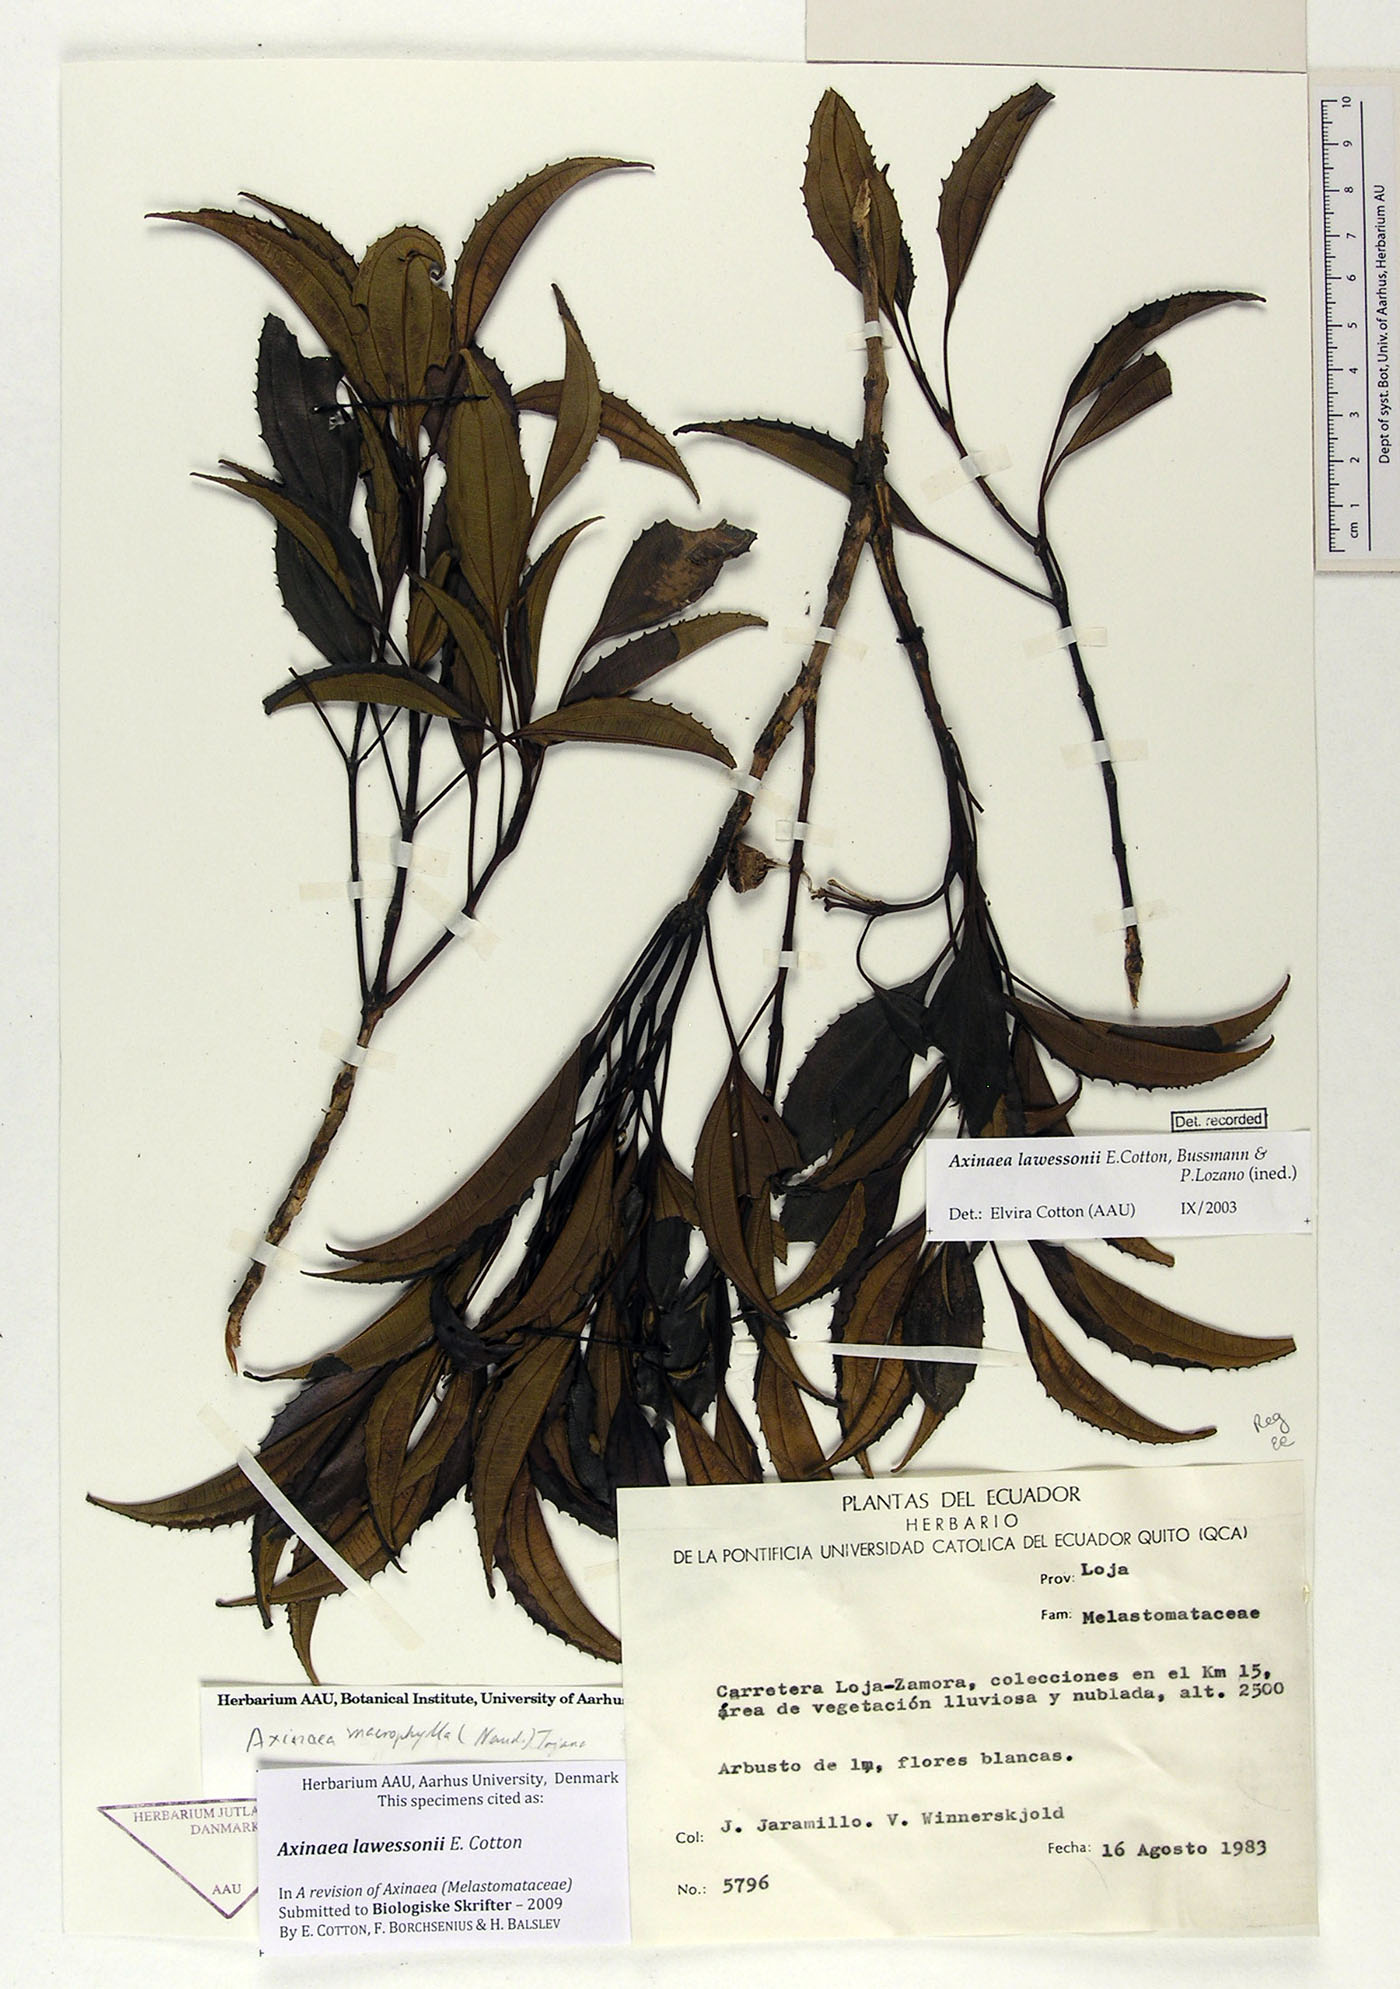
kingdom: Plantae
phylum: Tracheophyta
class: Magnoliopsida
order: Myrtales
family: Melastomataceae
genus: Axinaea
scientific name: Axinaea lawessonii
